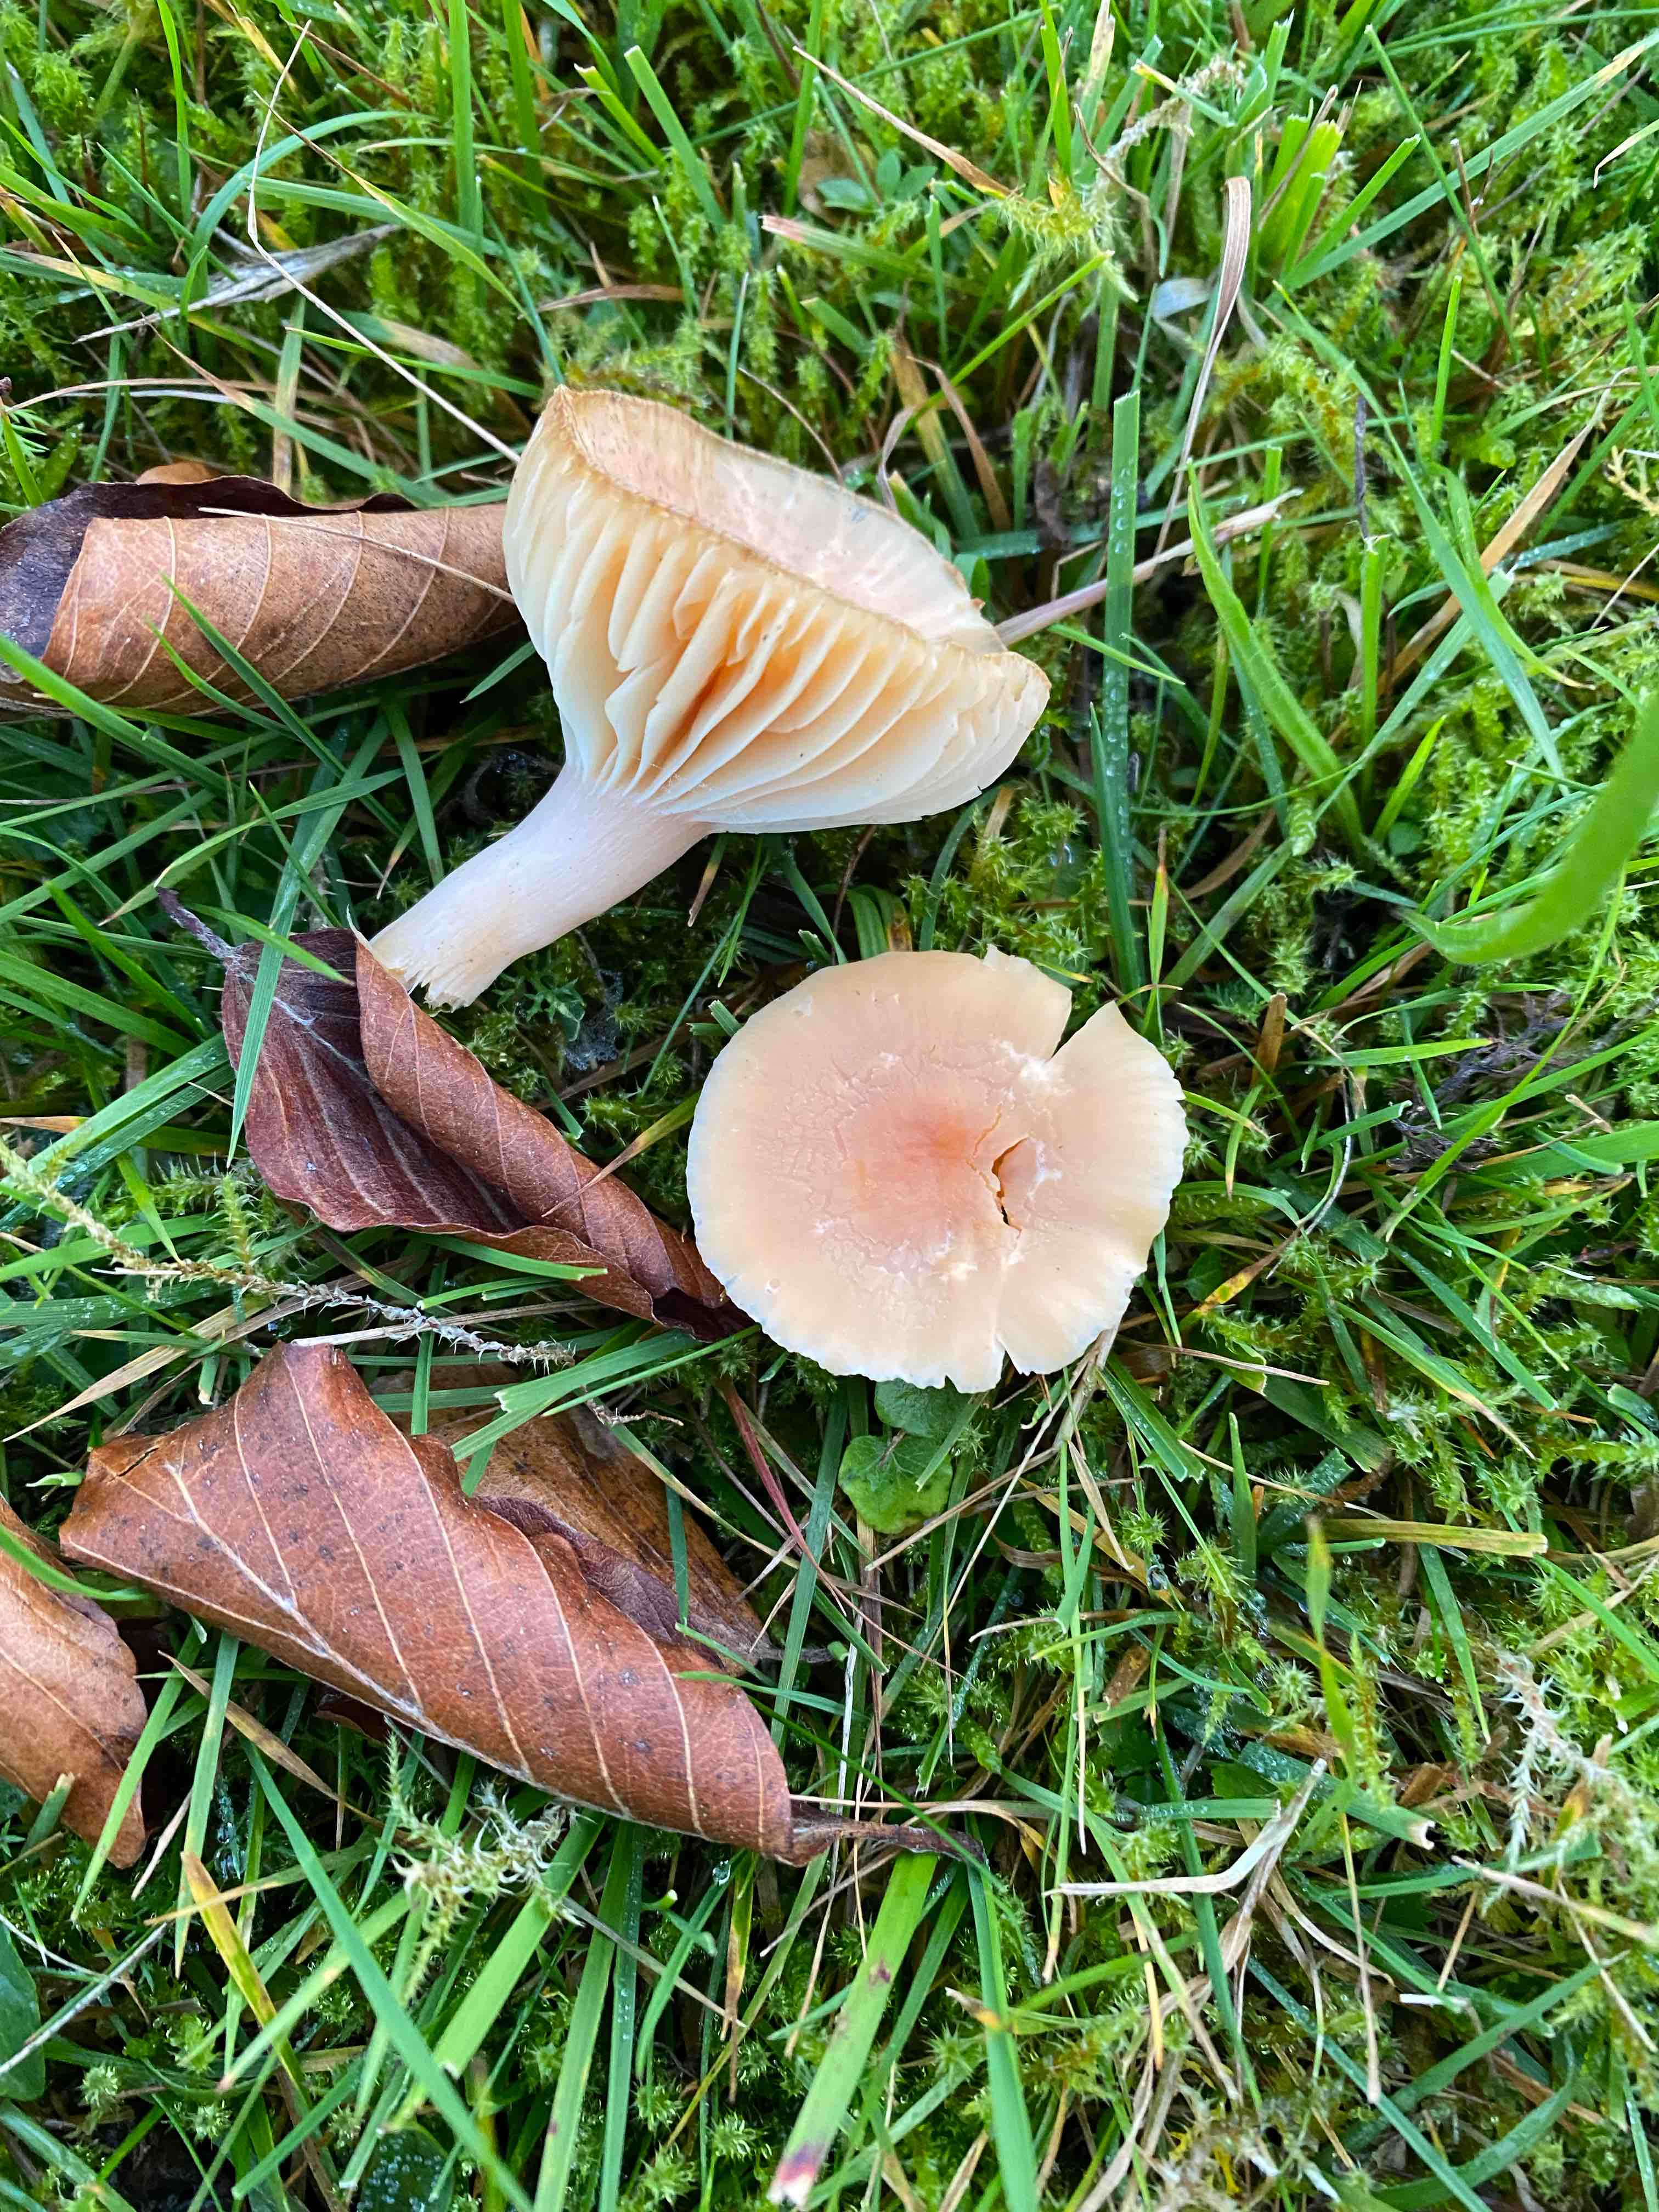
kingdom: Fungi
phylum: Basidiomycota
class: Agaricomycetes
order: Agaricales
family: Hygrophoraceae
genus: Cuphophyllus
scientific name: Cuphophyllus pratensis
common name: eng-vokshat
